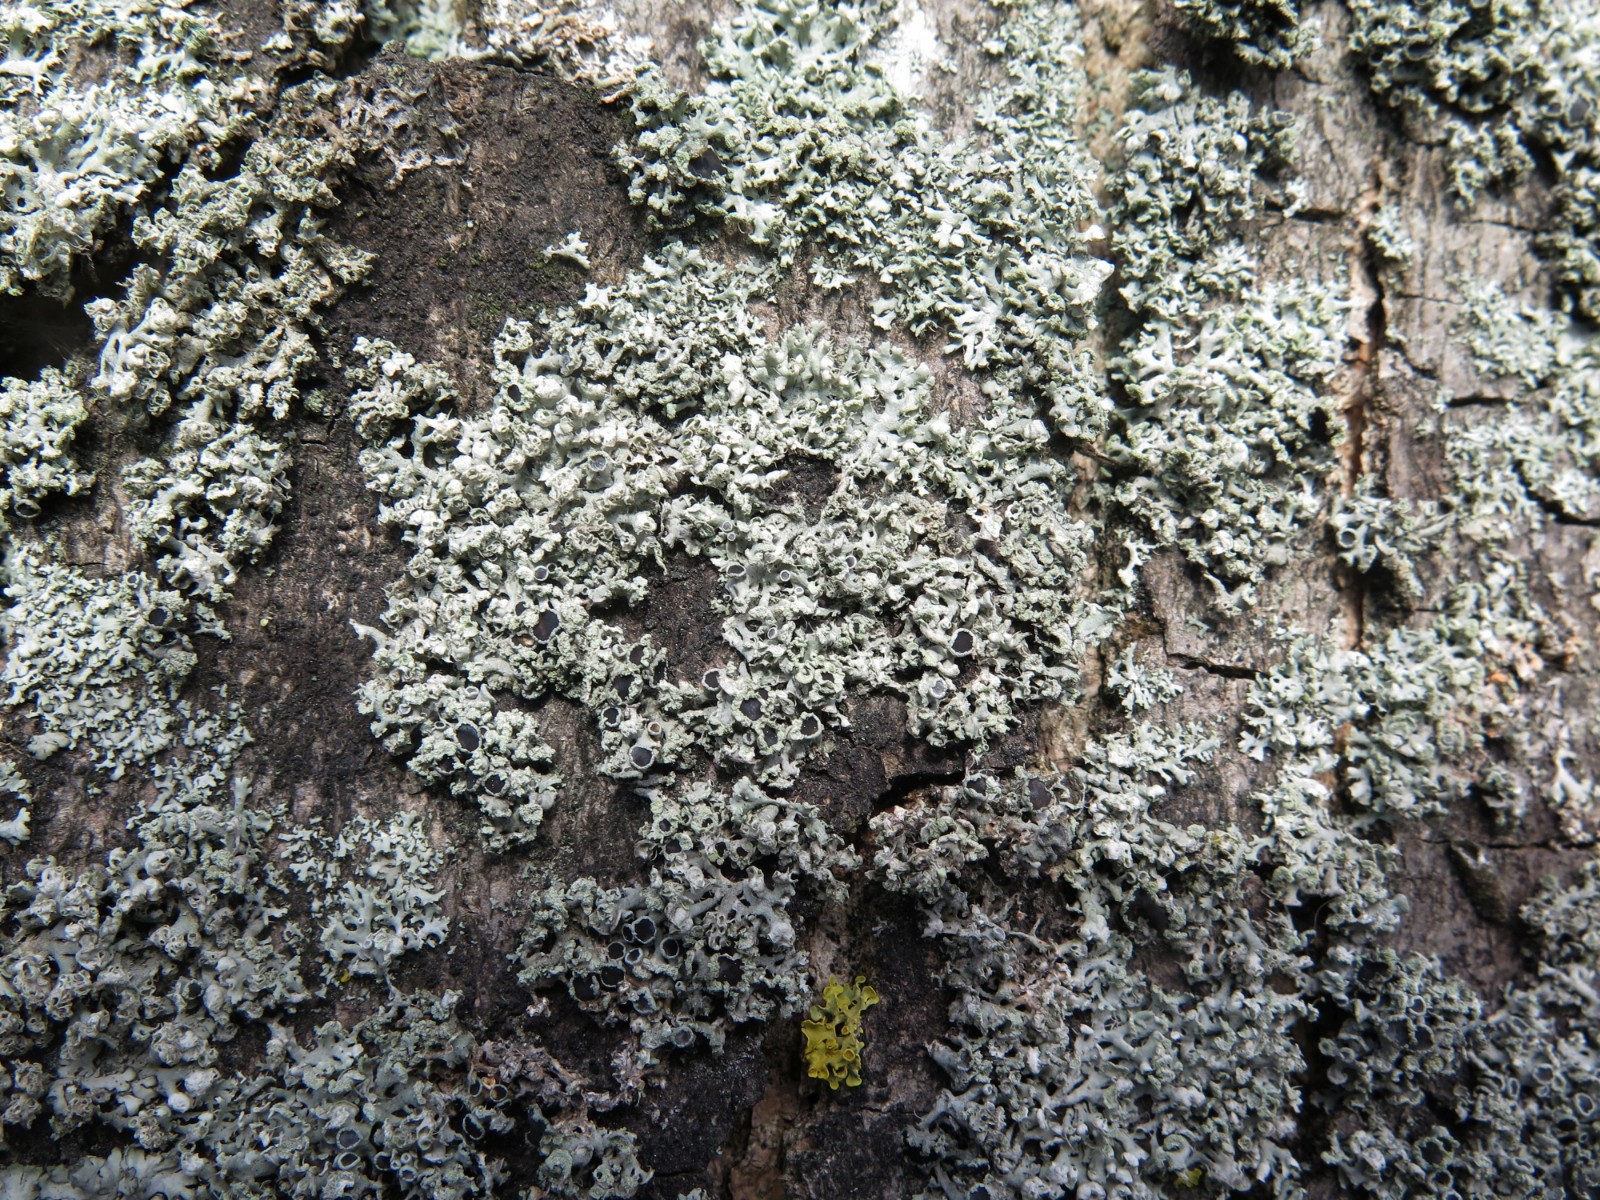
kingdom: Fungi
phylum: Ascomycota
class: Lecanoromycetes
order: Caliciales
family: Physciaceae
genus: Physcia
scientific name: Physcia adscendens
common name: hætte-rosetlav
